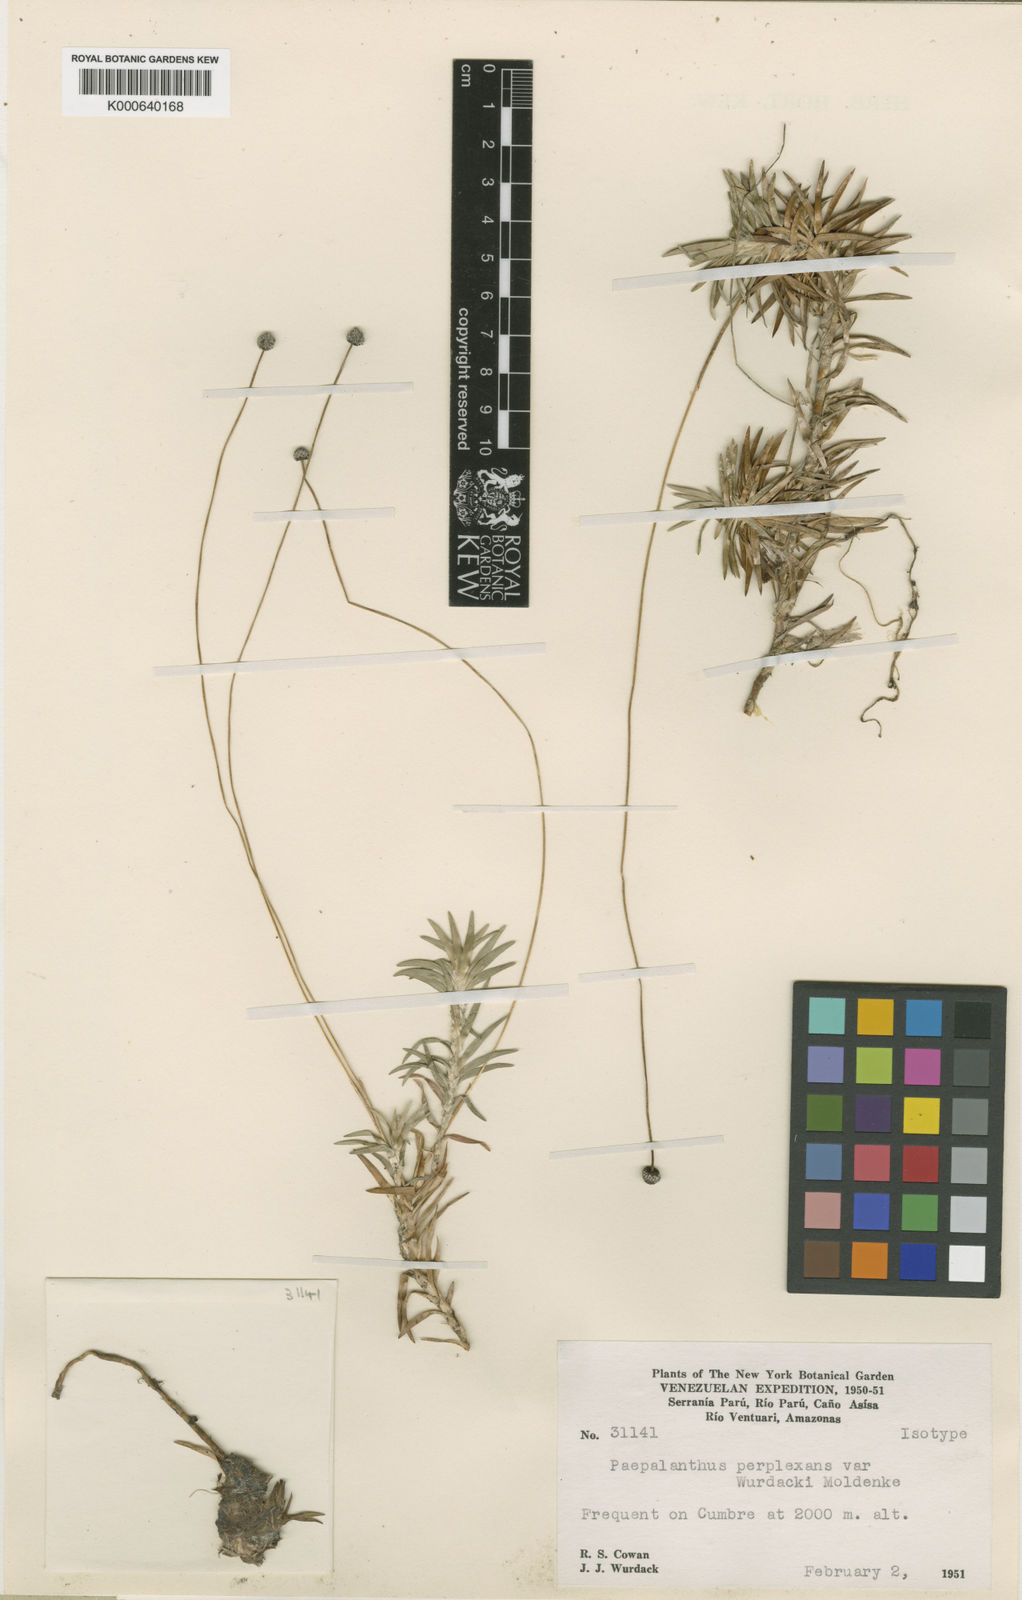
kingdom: Plantae
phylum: Tracheophyta
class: Liliopsida
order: Poales
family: Eriocaulaceae
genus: Paepalanthus
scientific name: Paepalanthus parvicephalus
